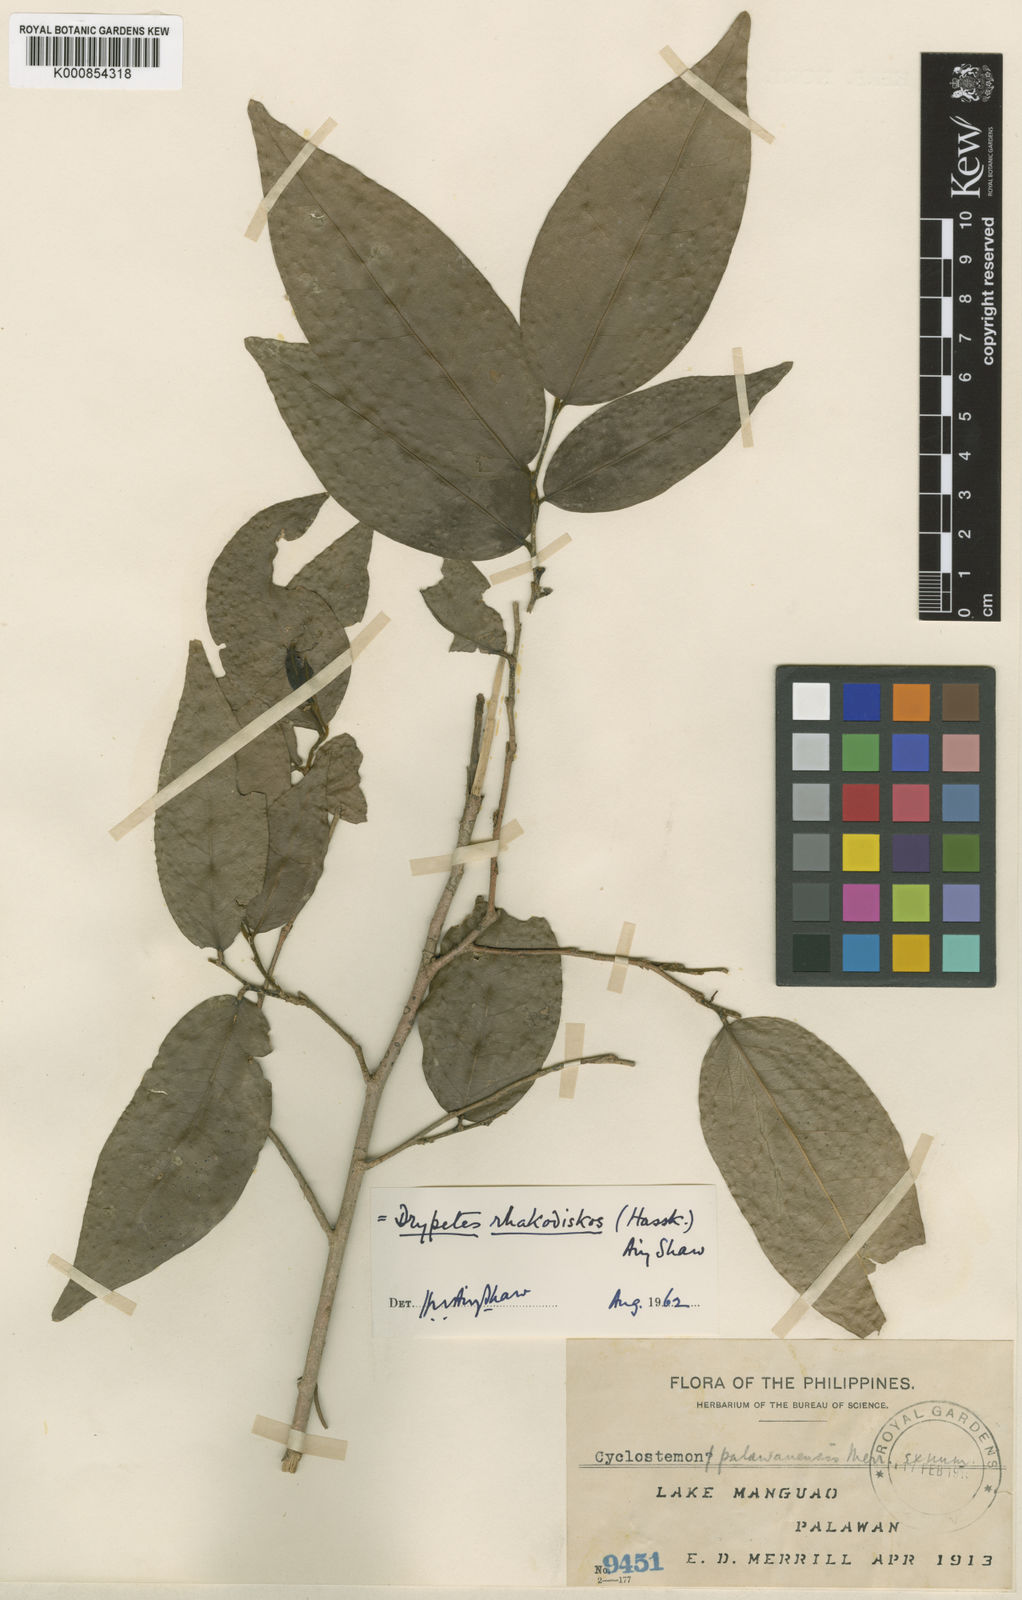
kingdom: Plantae
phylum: Tracheophyta
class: Magnoliopsida
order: Malpighiales
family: Putranjivaceae
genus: Drypetes
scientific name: Drypetes
